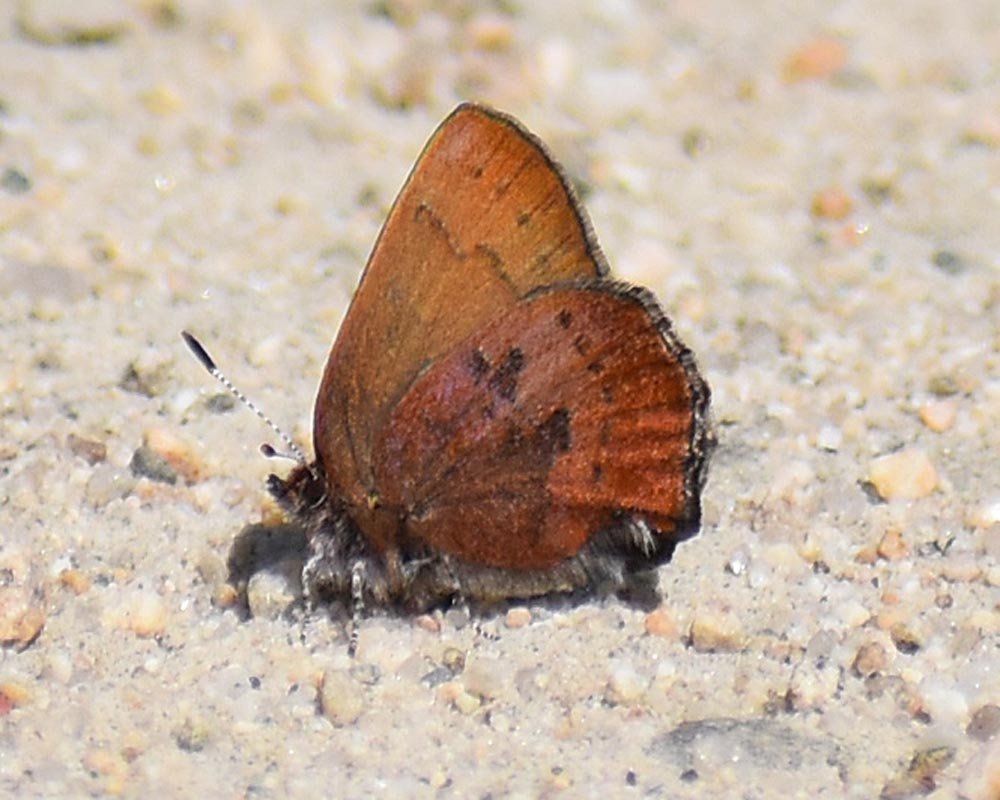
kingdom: Animalia
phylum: Arthropoda
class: Insecta
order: Lepidoptera
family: Lycaenidae
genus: Incisalia
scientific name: Incisalia irioides
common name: Brown Elfin
